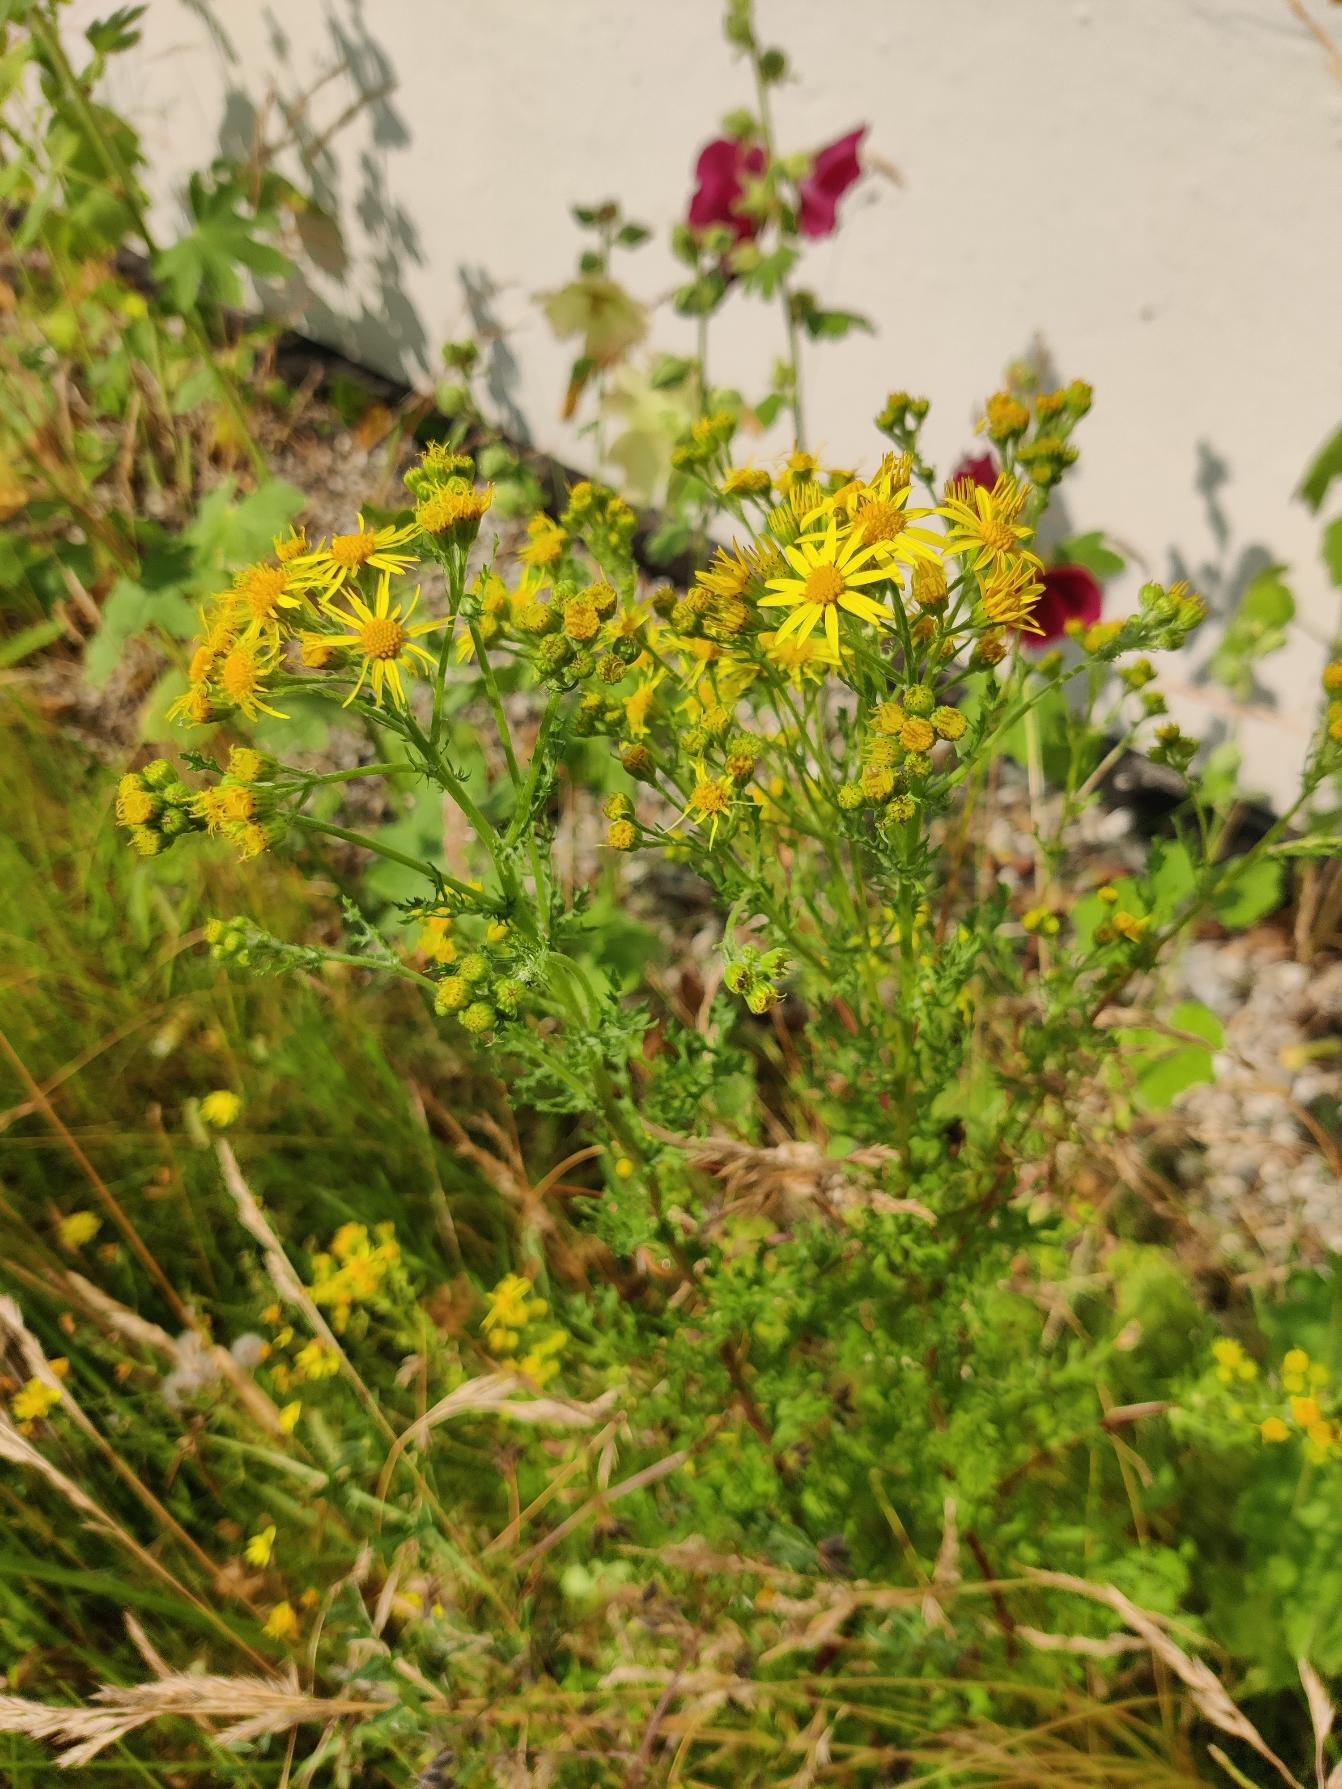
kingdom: Plantae
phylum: Tracheophyta
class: Magnoliopsida
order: Asterales
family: Asteraceae
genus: Jacobaea
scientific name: Jacobaea vulgaris
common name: Eng-brandbæger
